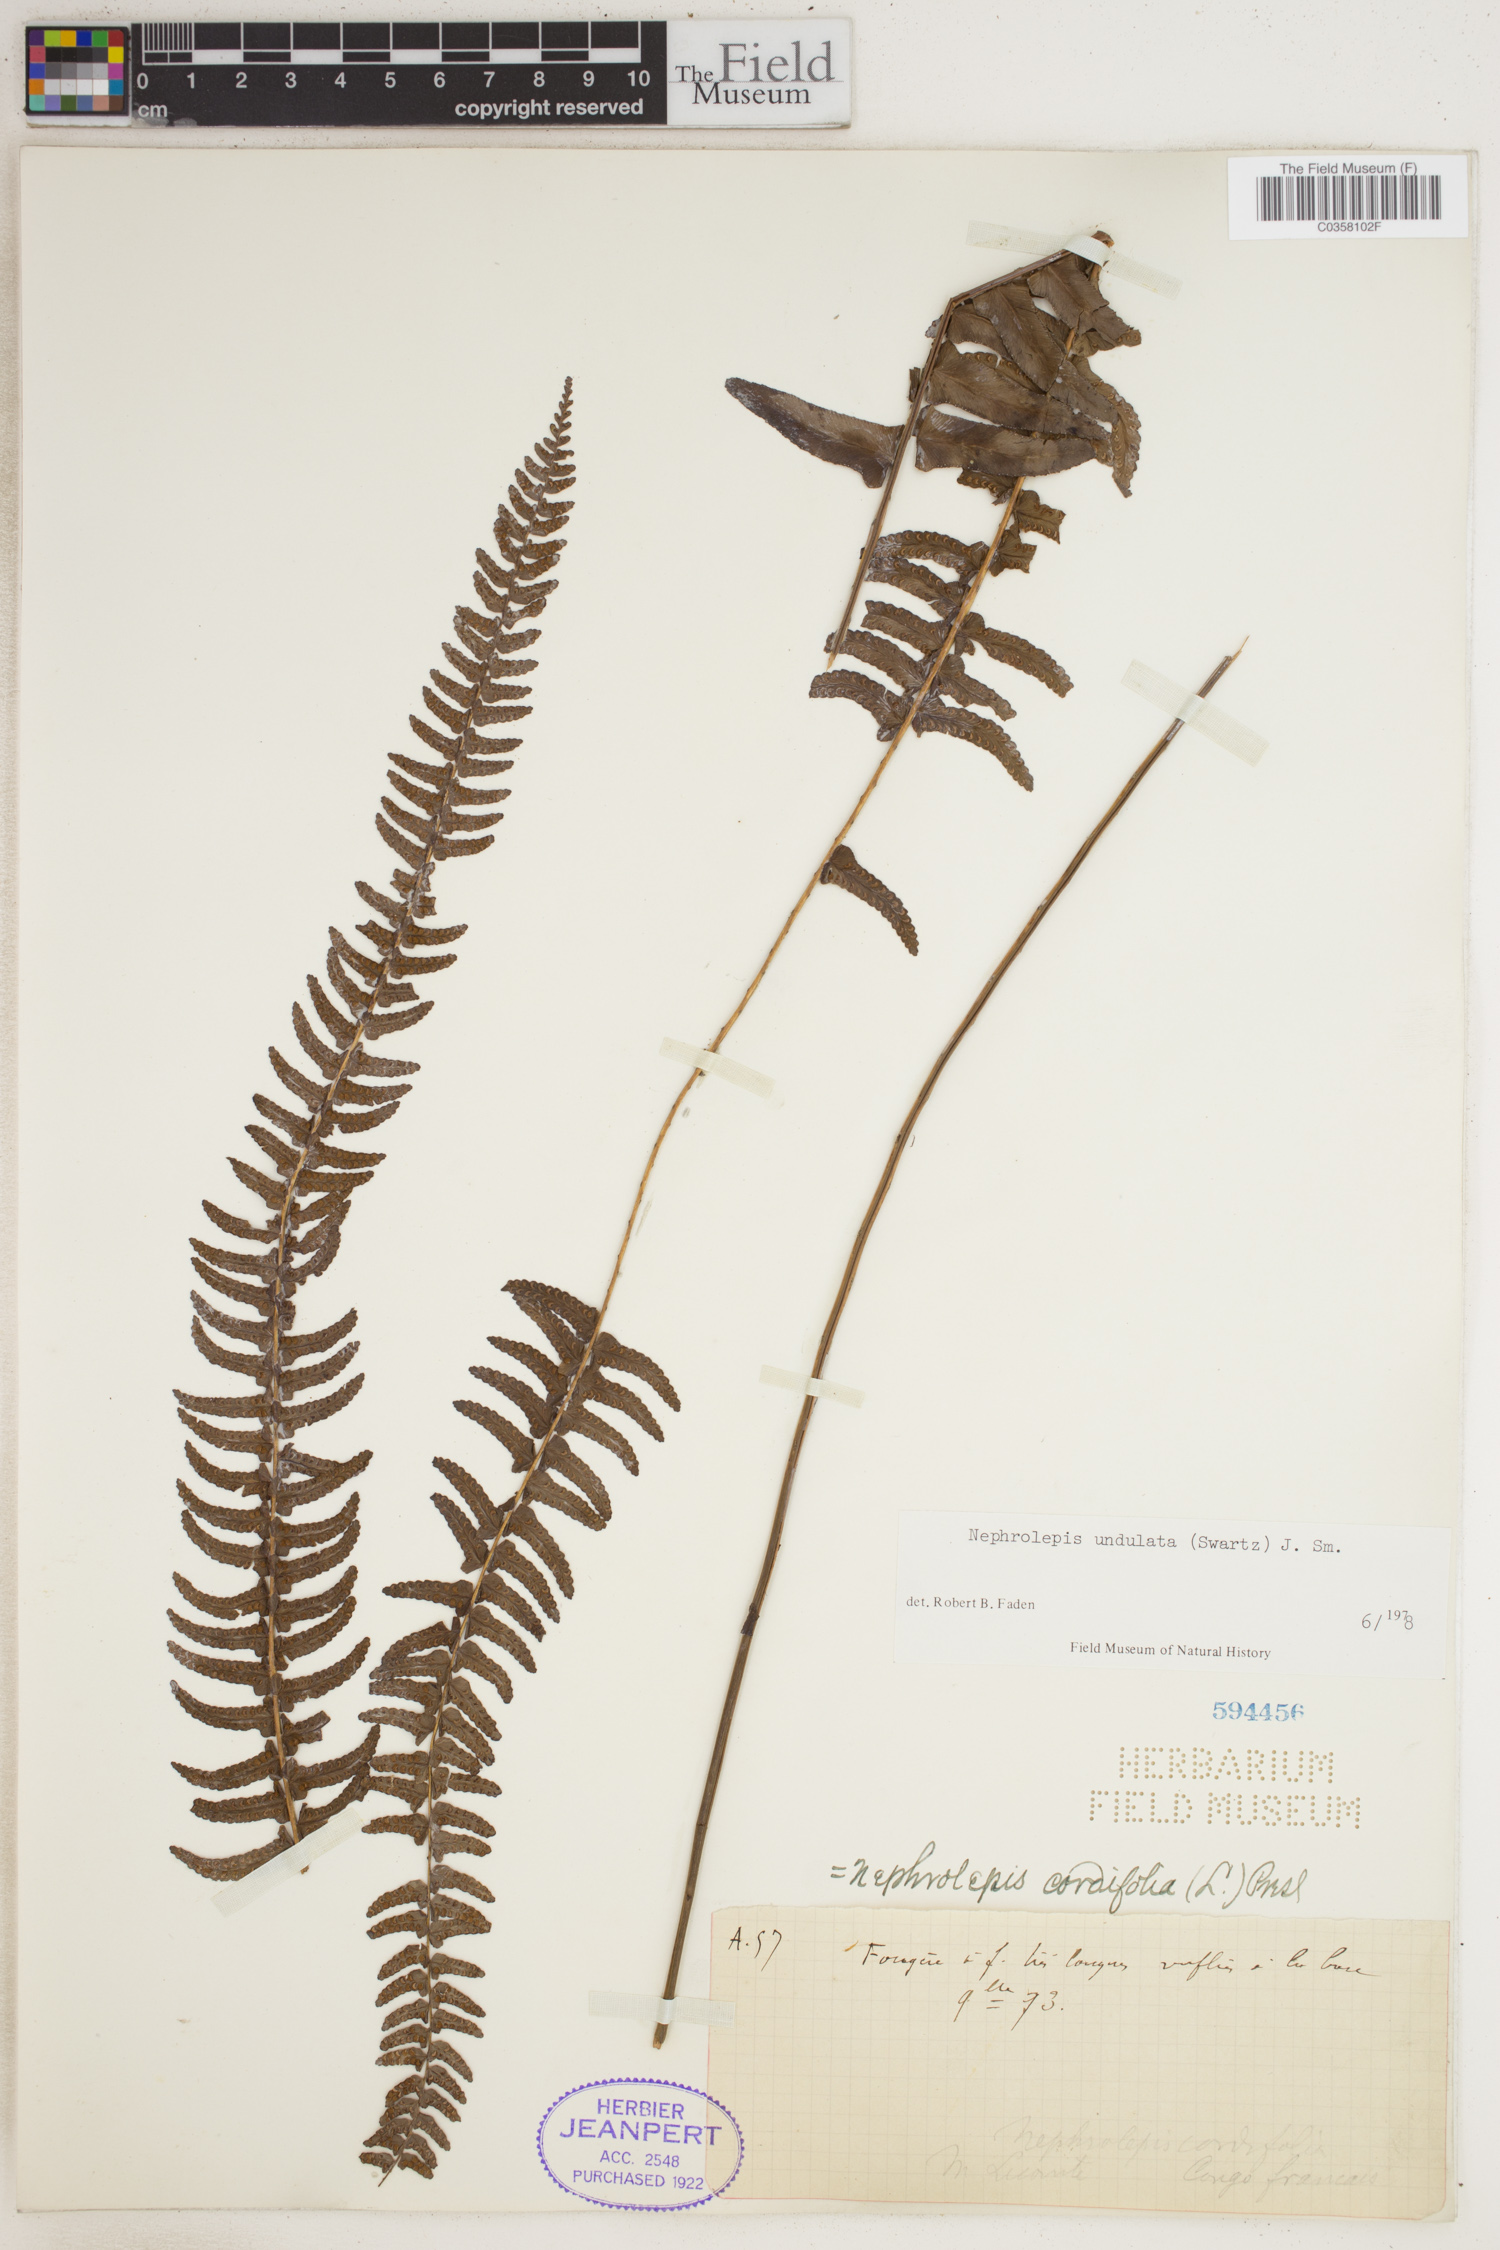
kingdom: Plantae
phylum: Tracheophyta
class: Polypodiopsida
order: Polypodiales
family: Nephrolepidaceae
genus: Nephrolepis
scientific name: Nephrolepis undulata
